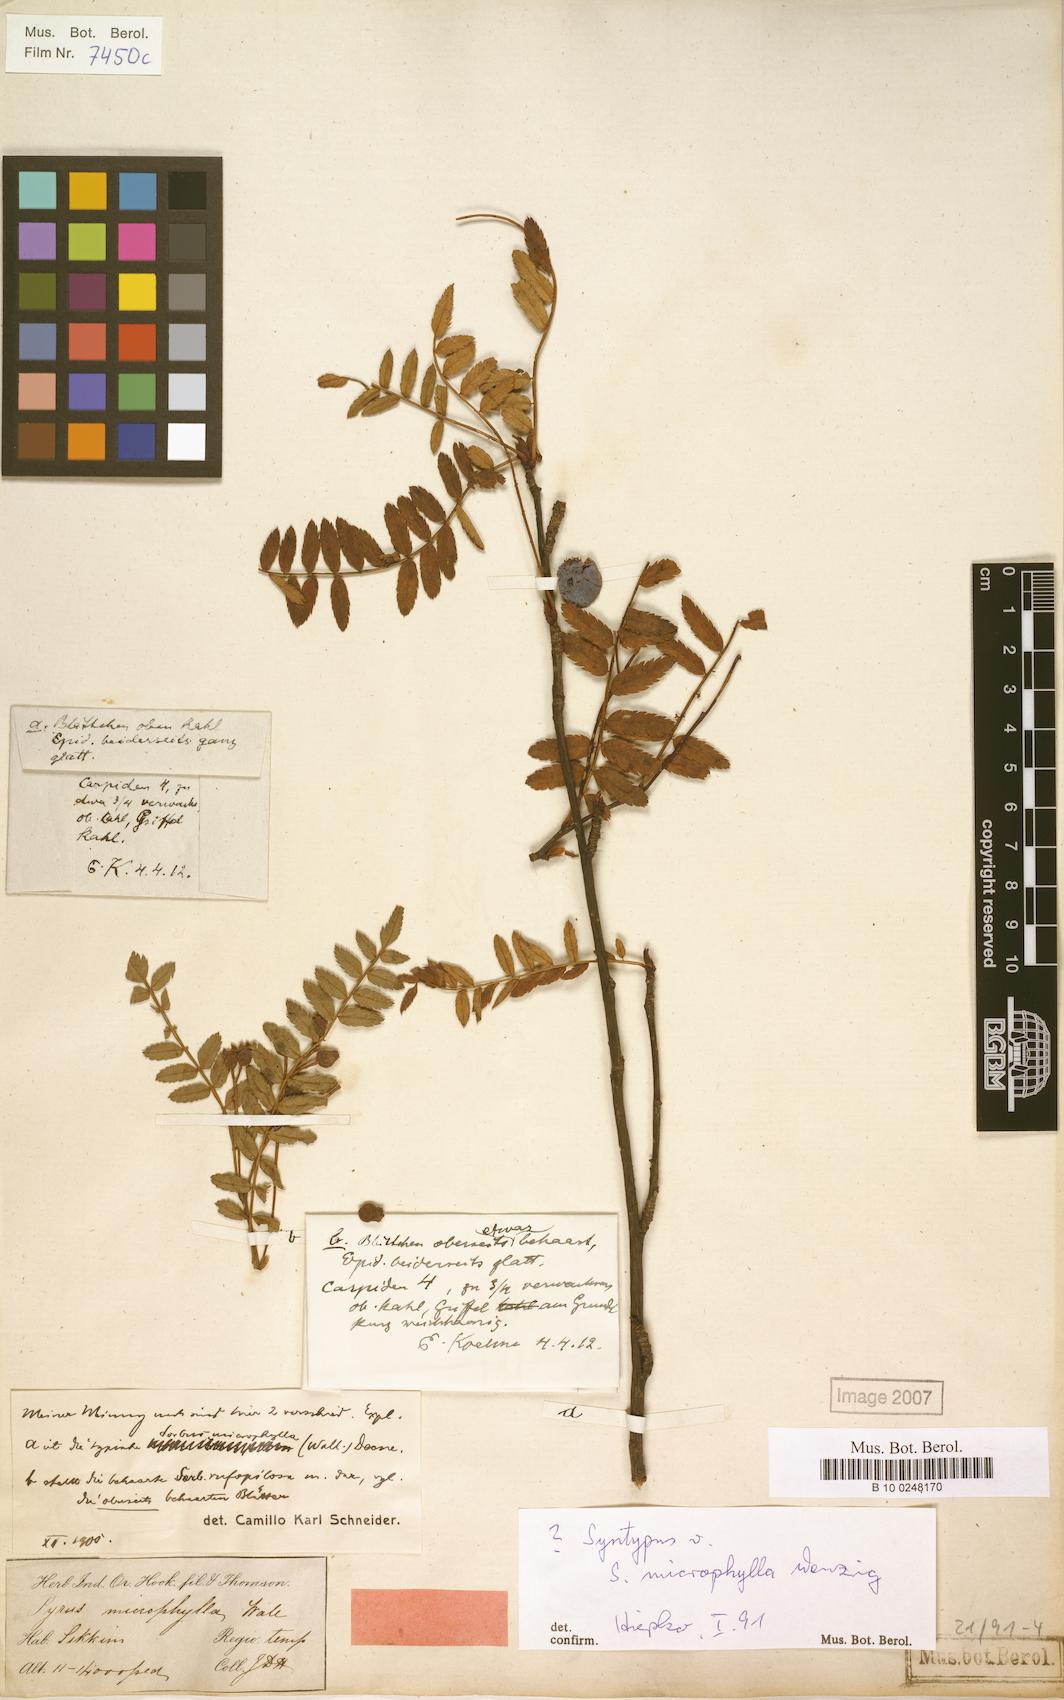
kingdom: Plantae
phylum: Tracheophyta
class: Magnoliopsida
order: Rosales
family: Rosaceae
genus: Sorbus
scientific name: Sorbus microphylla
